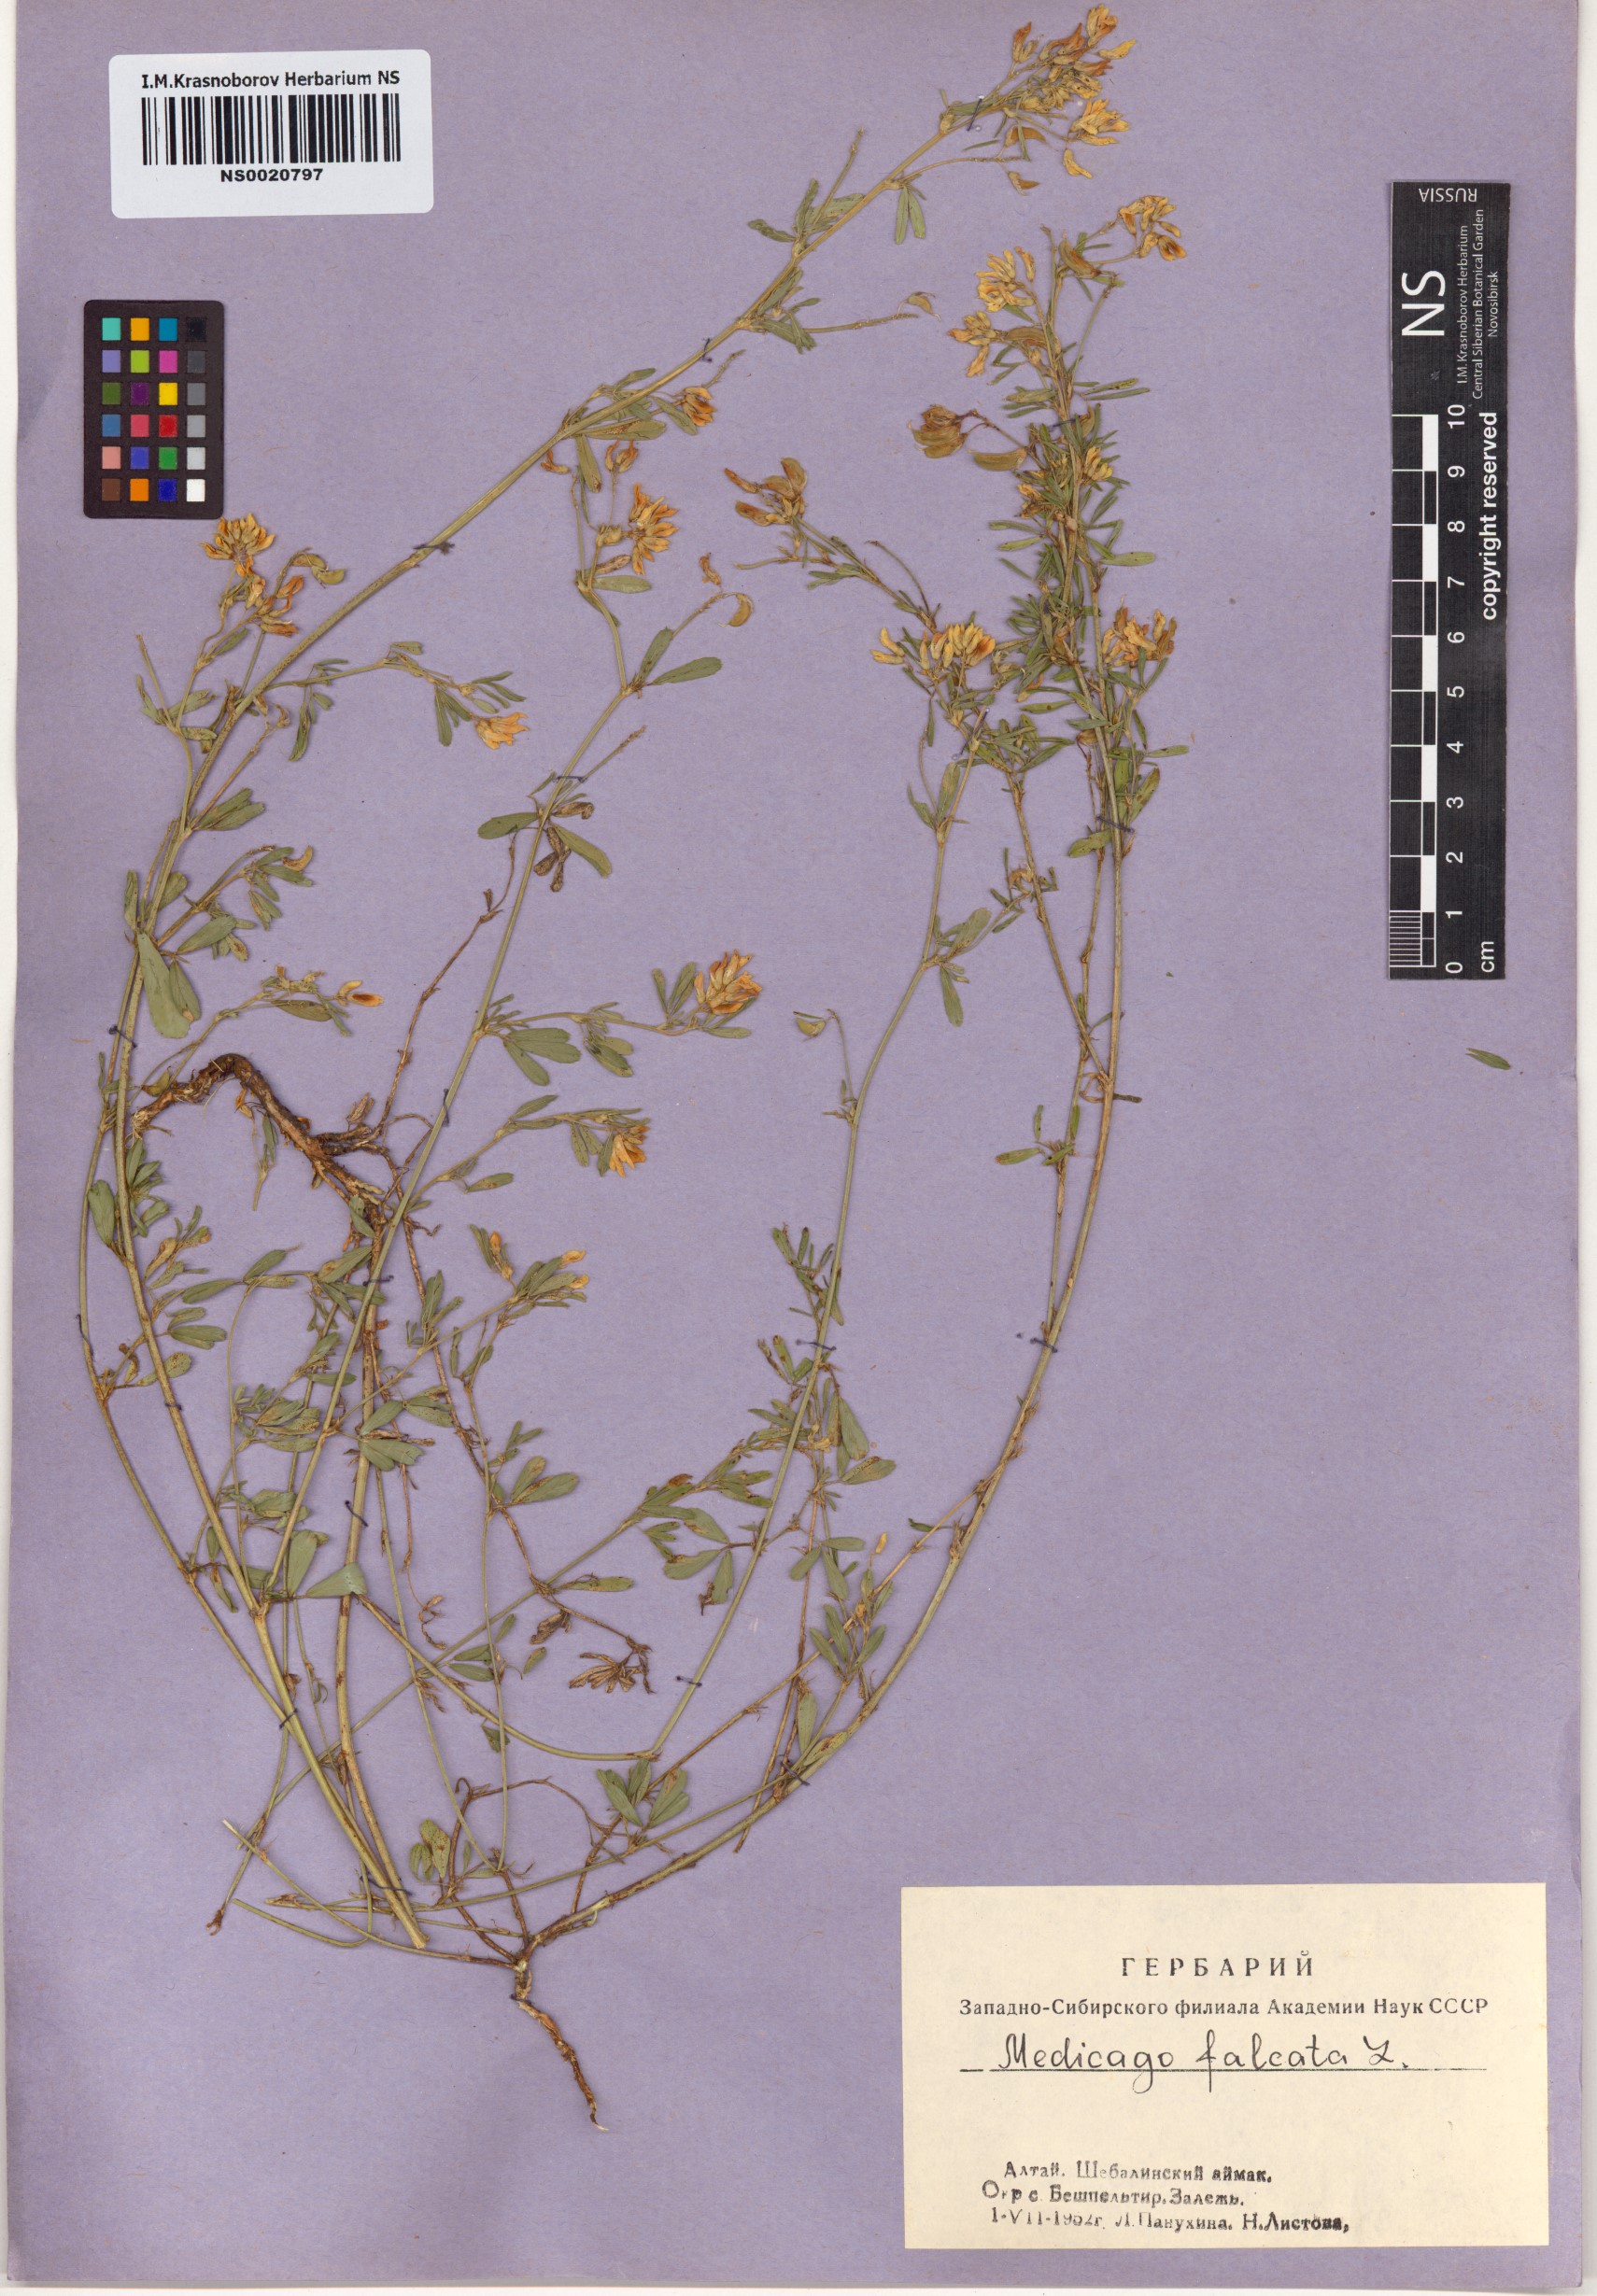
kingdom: Plantae
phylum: Tracheophyta
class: Magnoliopsida
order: Fabales
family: Fabaceae
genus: Medicago
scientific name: Medicago falcata
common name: Sickle medick
